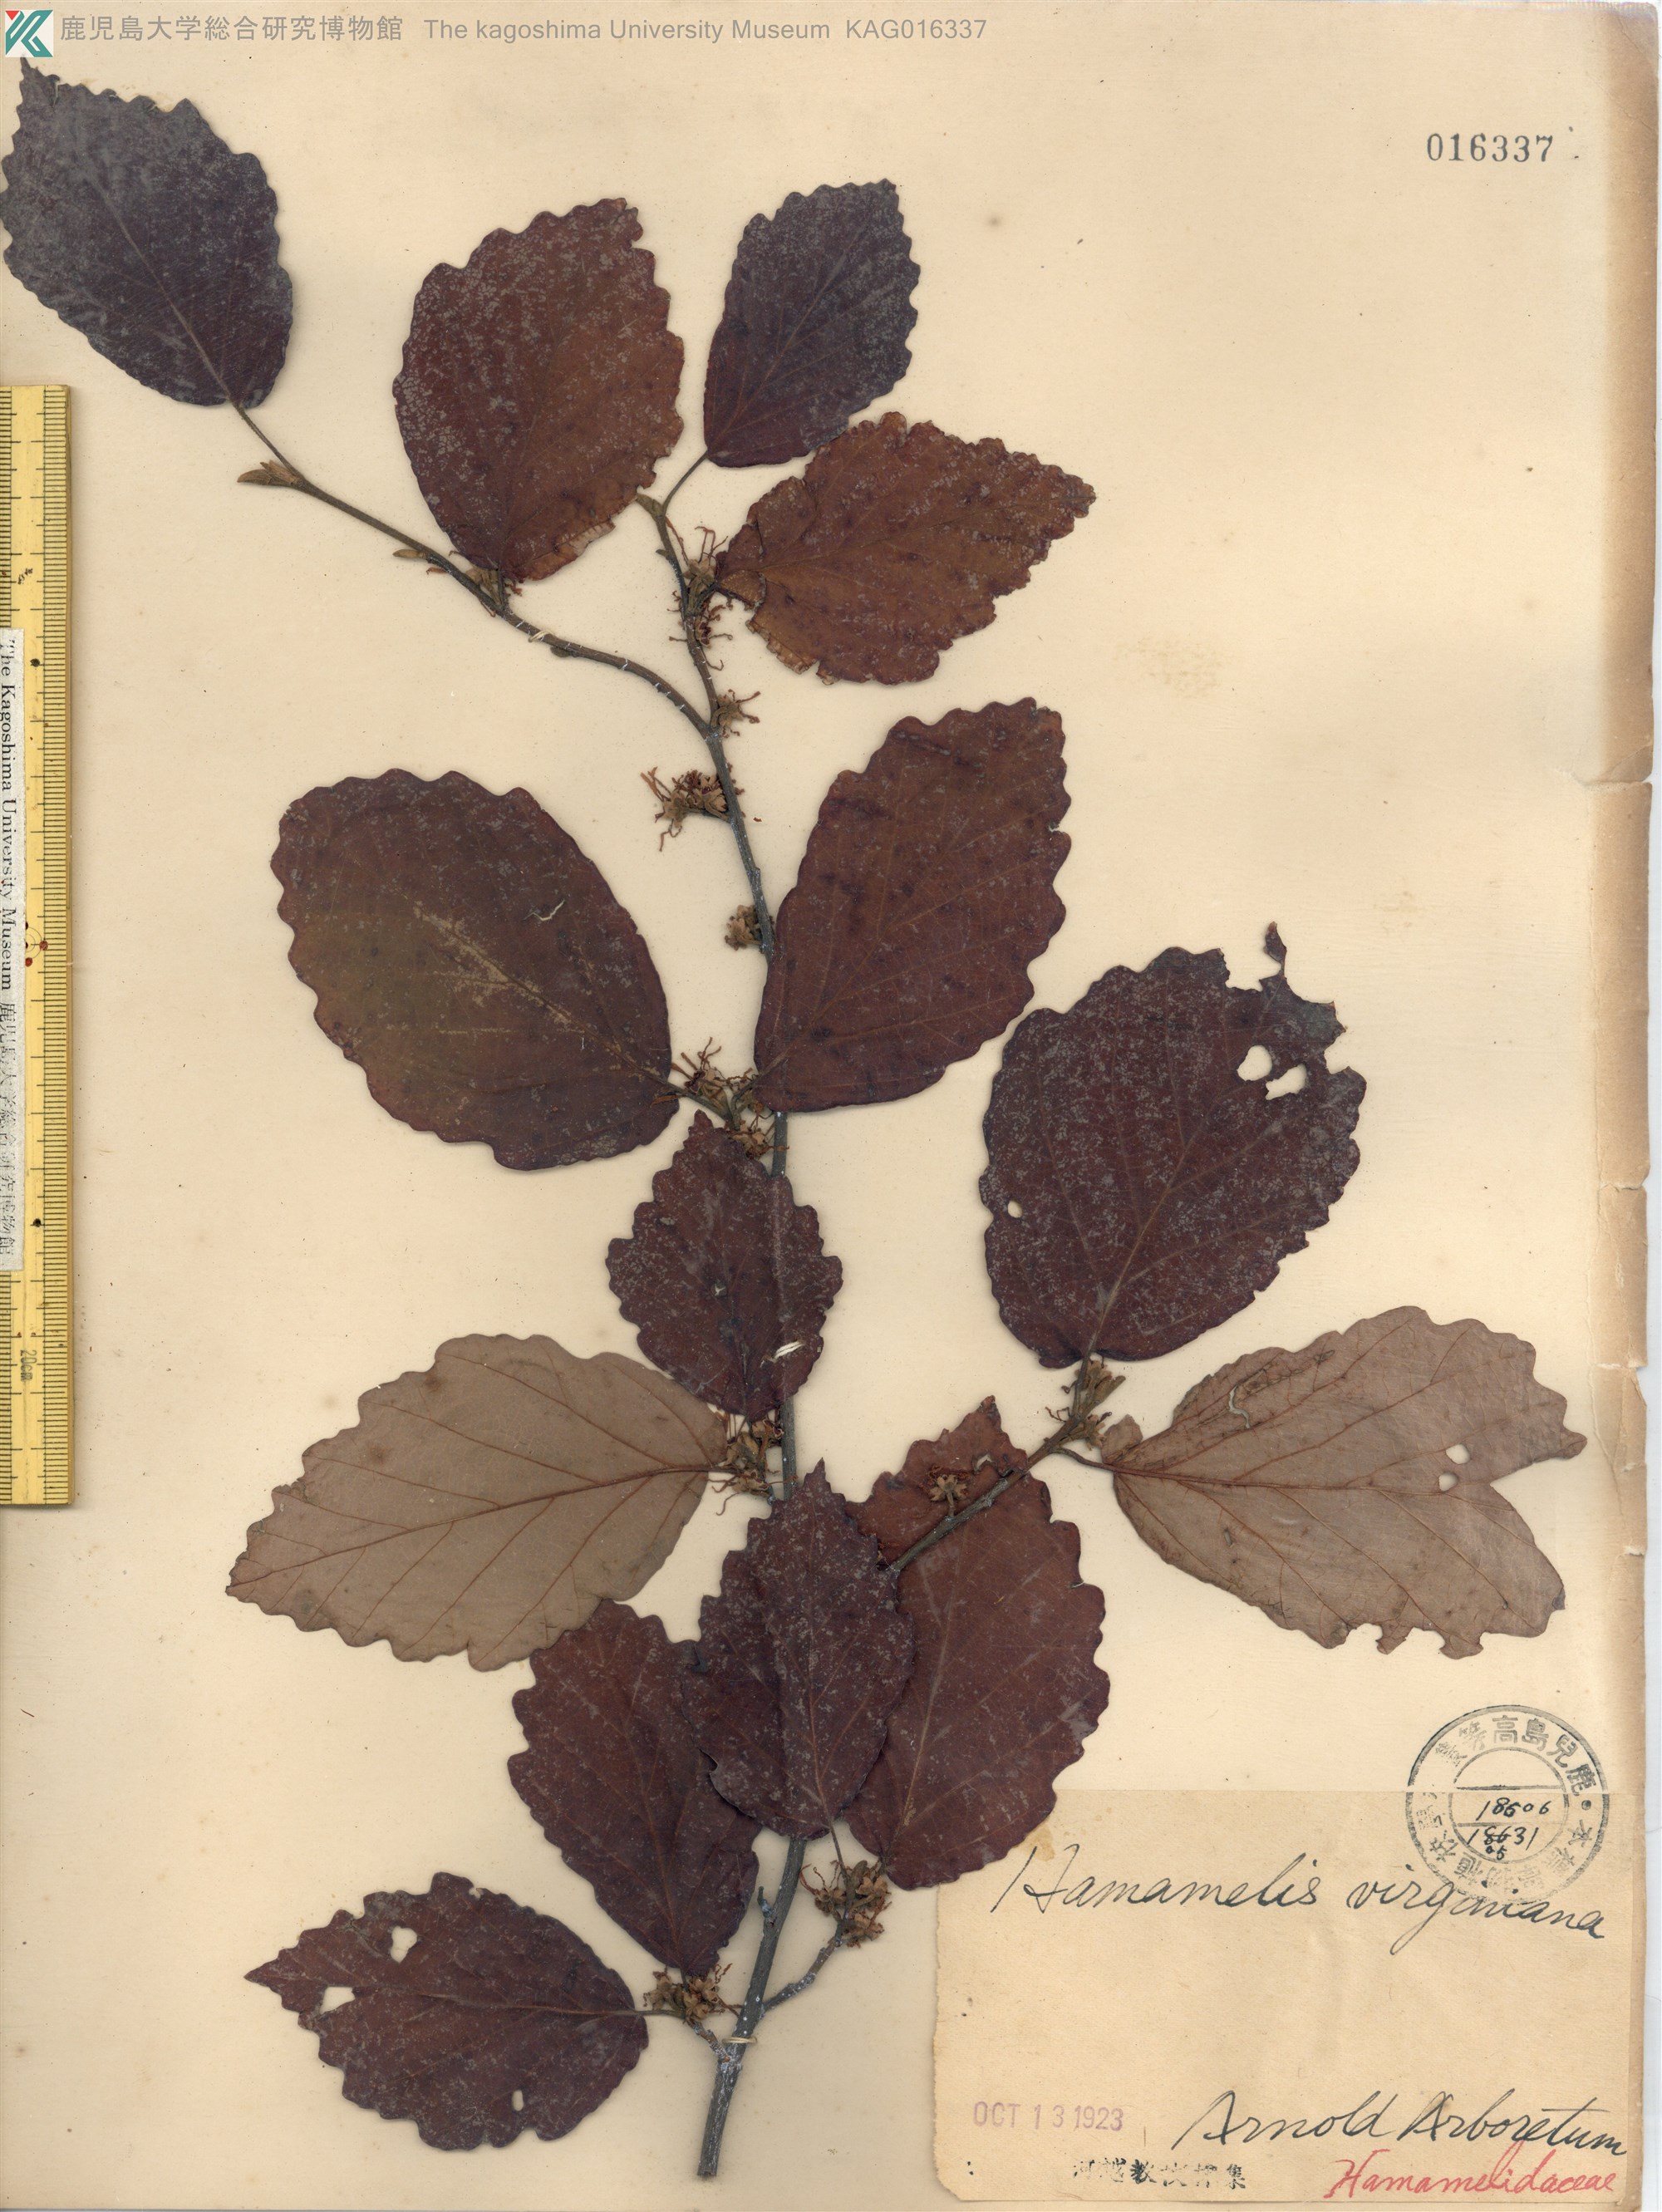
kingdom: Plantae
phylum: Tracheophyta
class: Magnoliopsida
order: Saxifragales
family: Hamamelidaceae
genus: Hamamelis
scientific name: Hamamelis virginiana
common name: Witch-hazel
